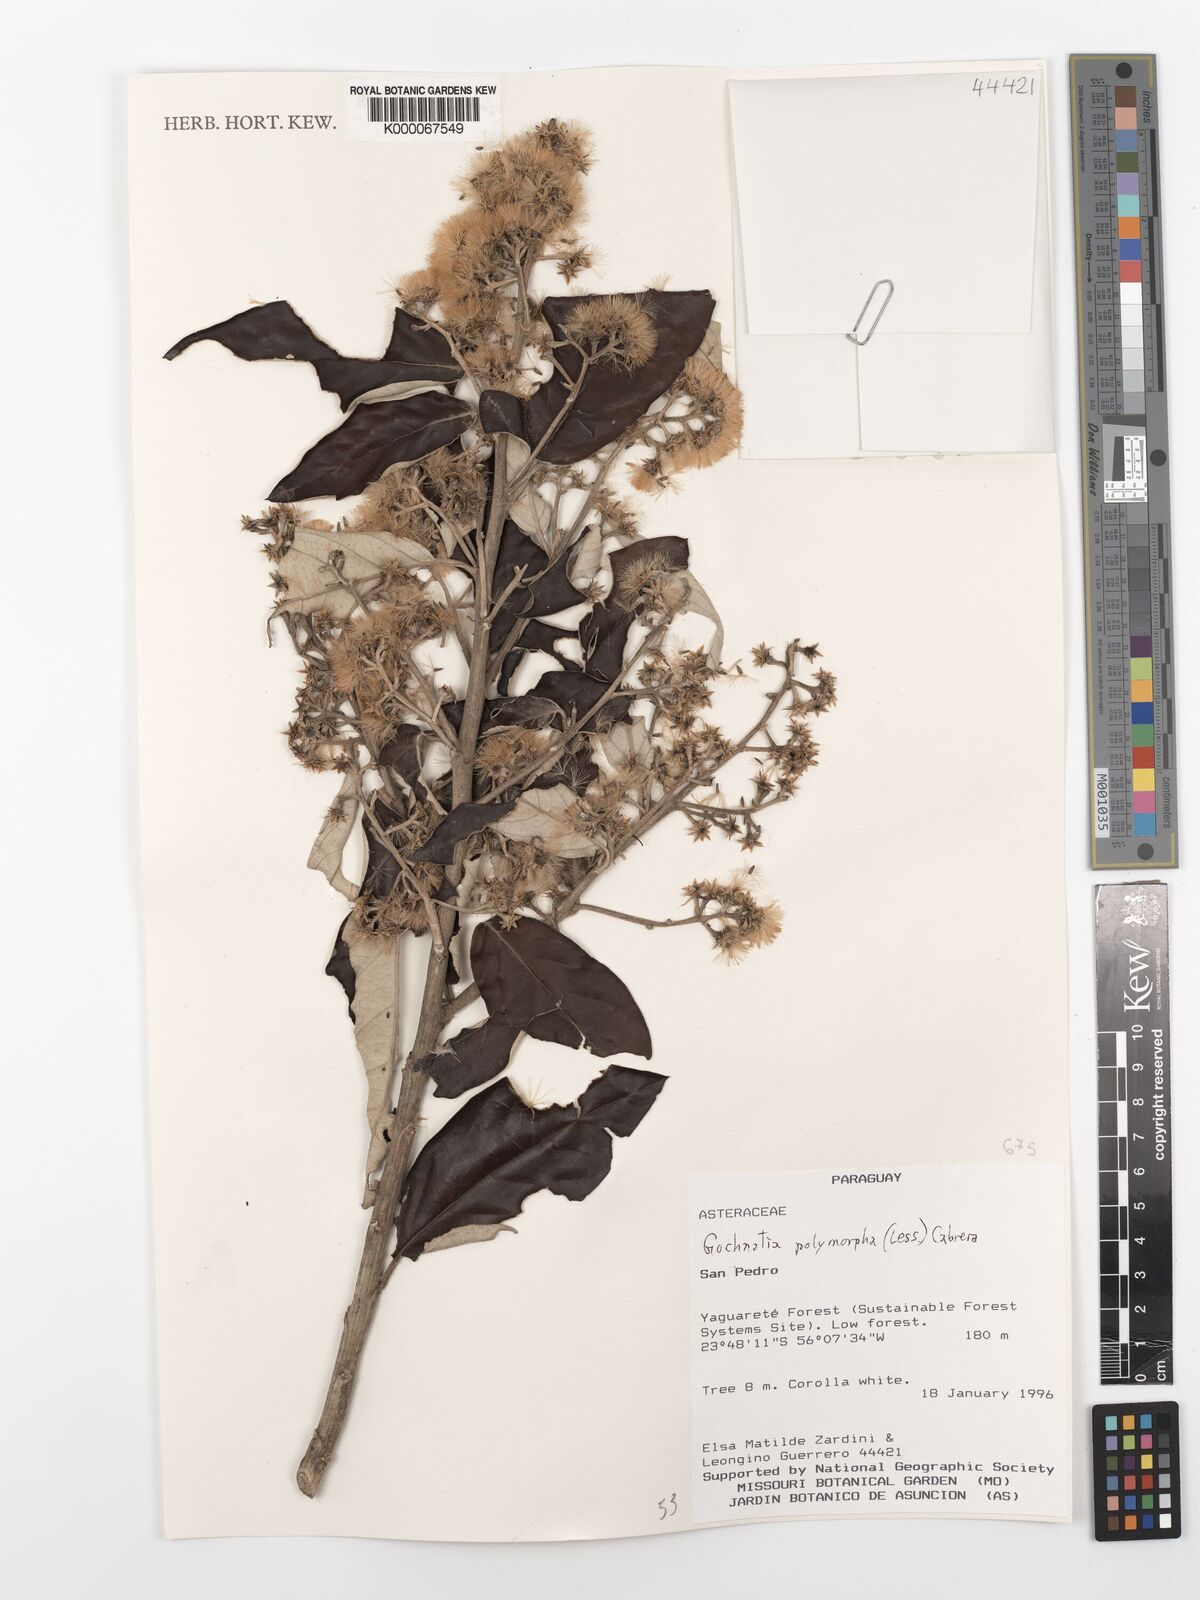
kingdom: Plantae
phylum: Tracheophyta
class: Magnoliopsida
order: Asterales
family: Asteraceae
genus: Moquiniastrum
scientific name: Moquiniastrum polymorphum
